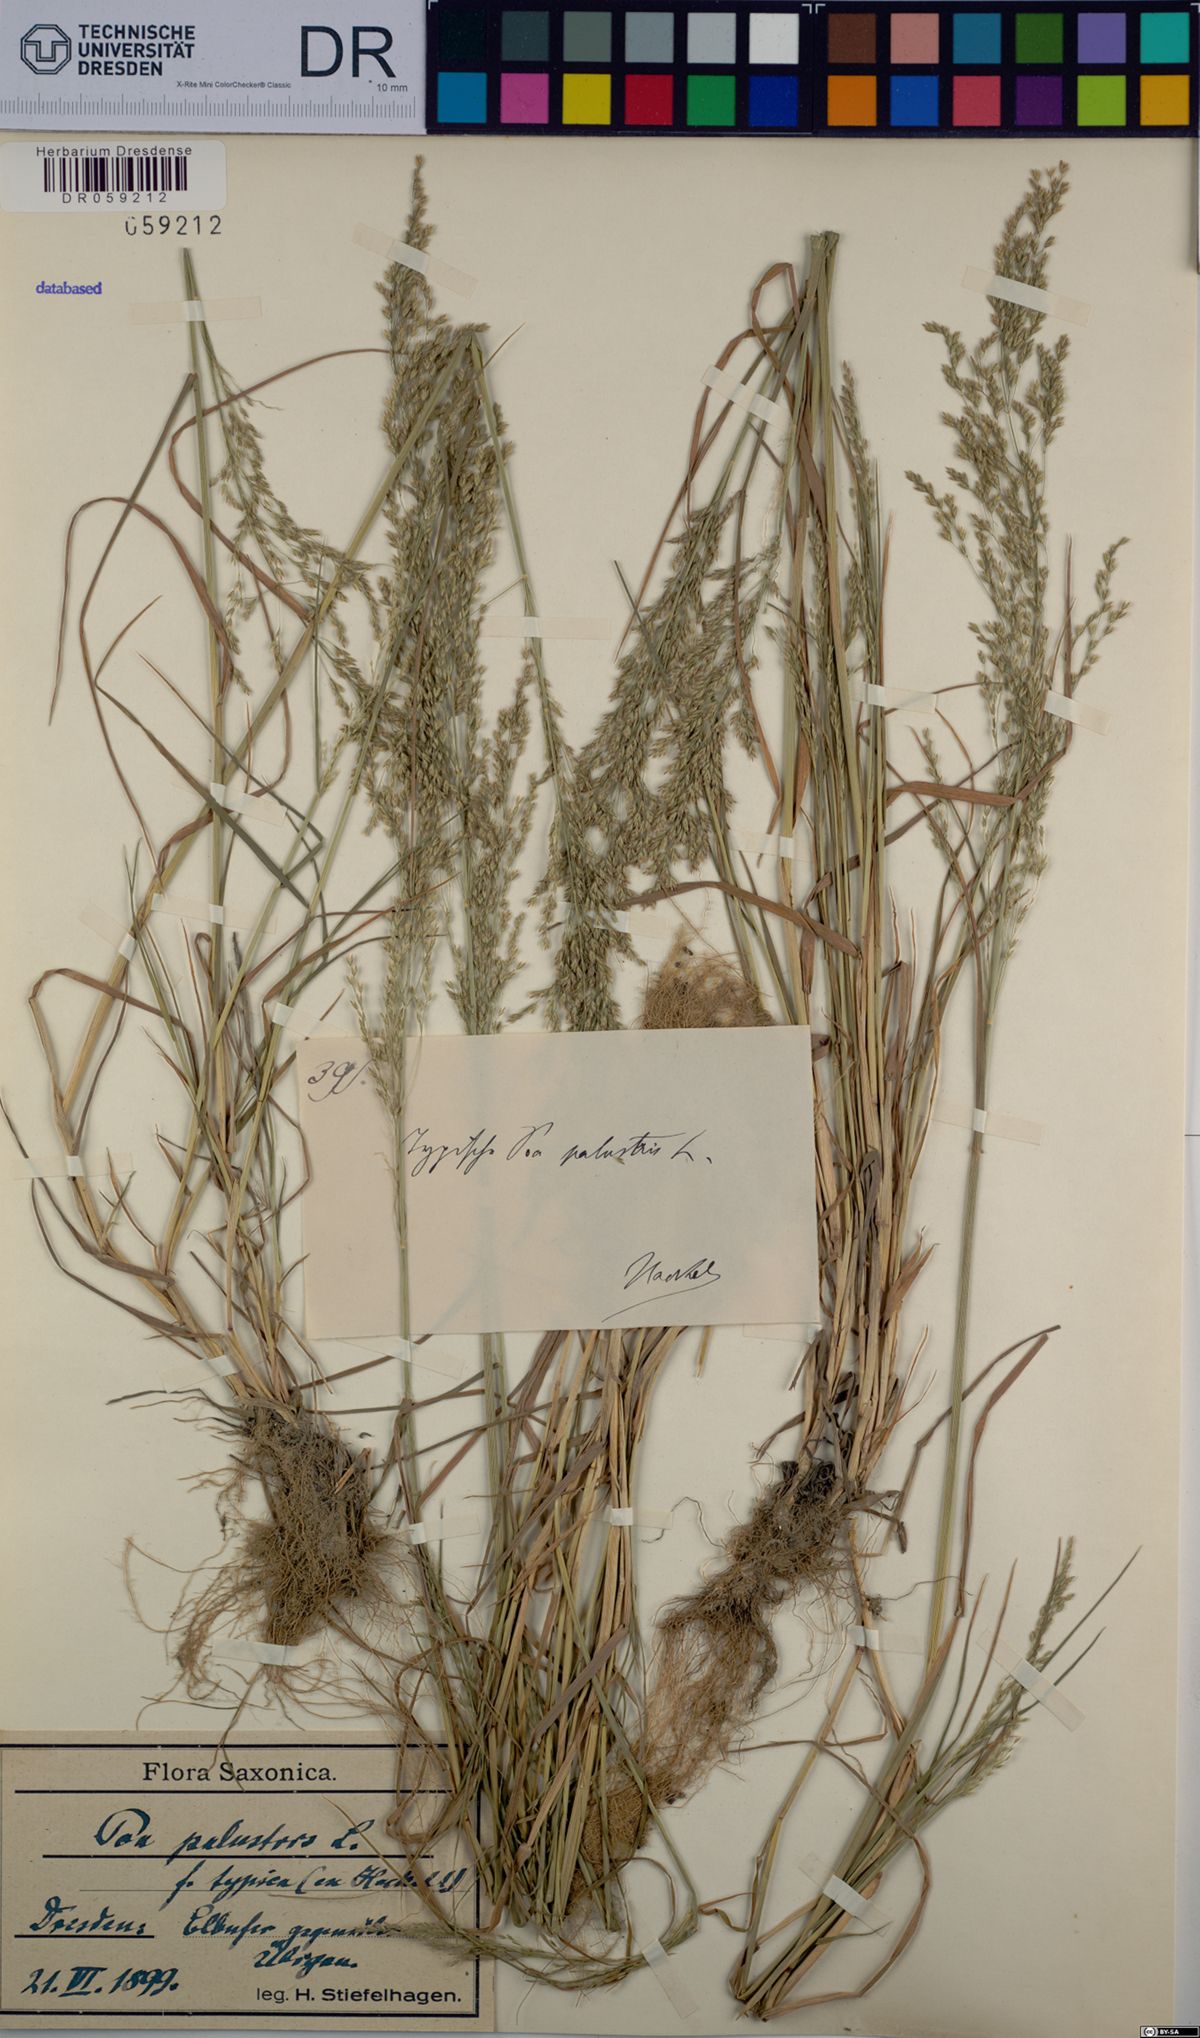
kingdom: Plantae
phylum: Tracheophyta
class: Liliopsida
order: Poales
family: Poaceae
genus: Poa
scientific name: Poa palustris
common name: Swamp meadow-grass
